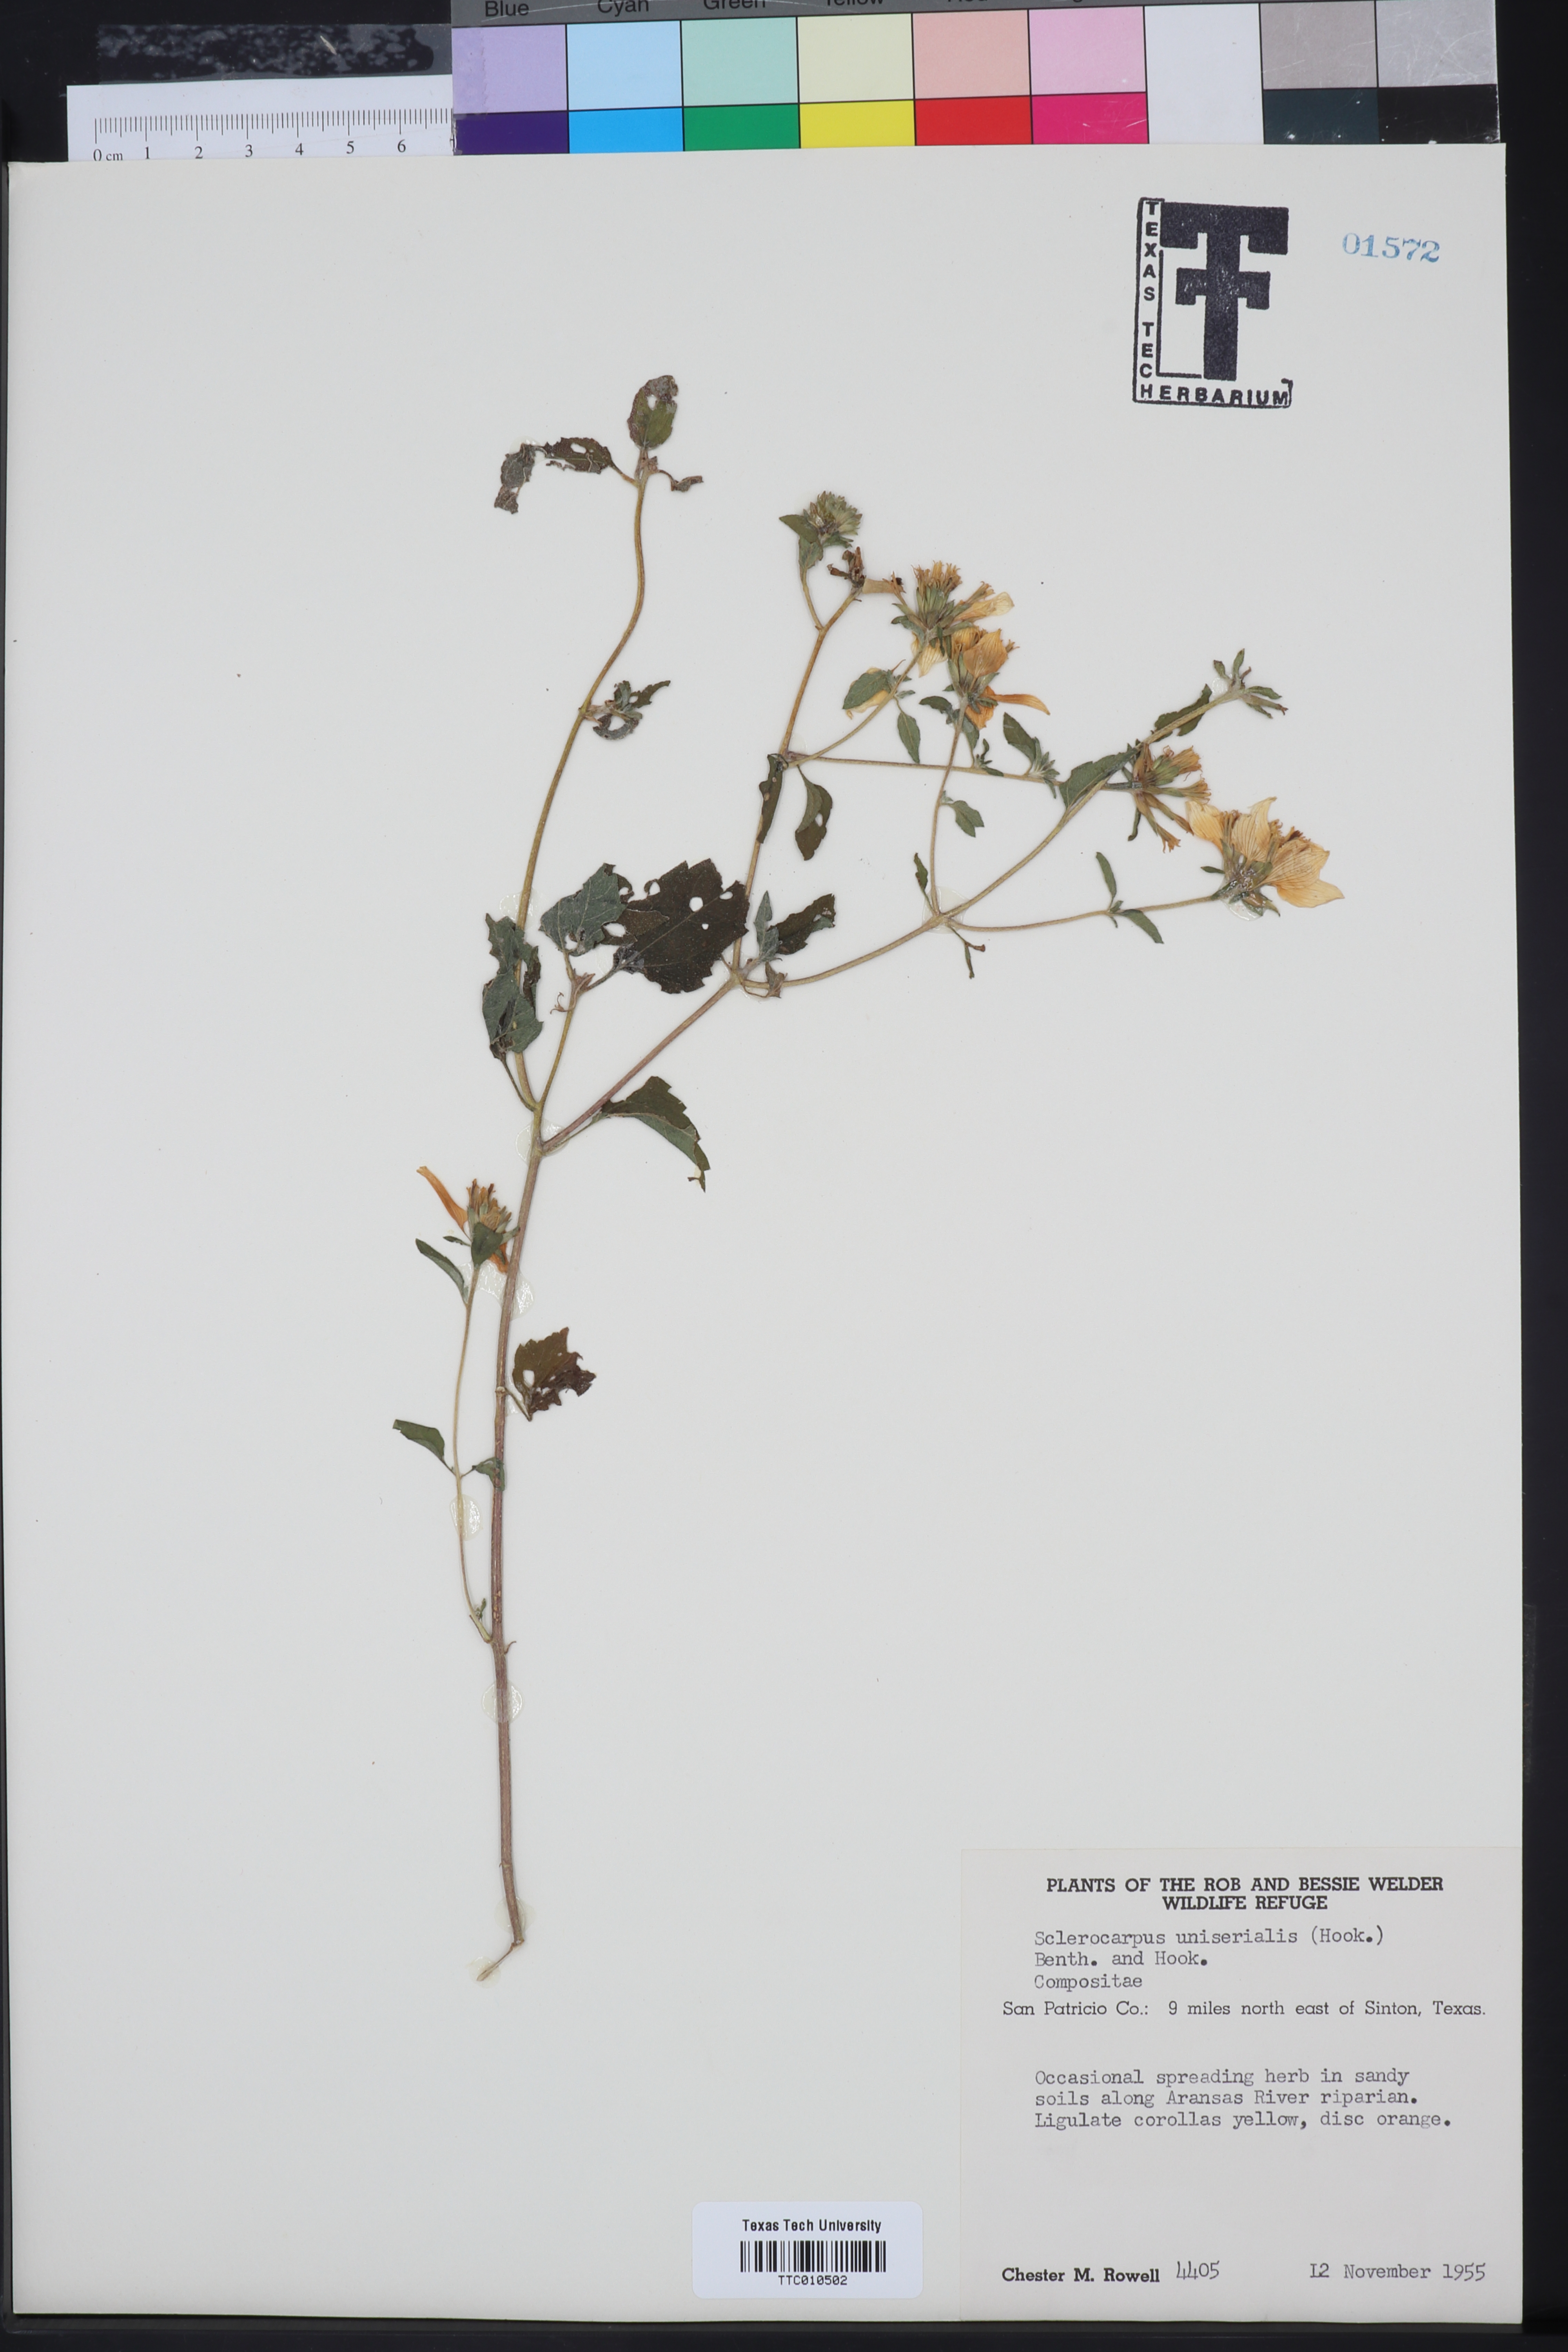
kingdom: Plantae
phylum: Tracheophyta
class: Magnoliopsida
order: Asterales
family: Asteraceae
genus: Sclerocarpus
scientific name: Sclerocarpus uniserialis
